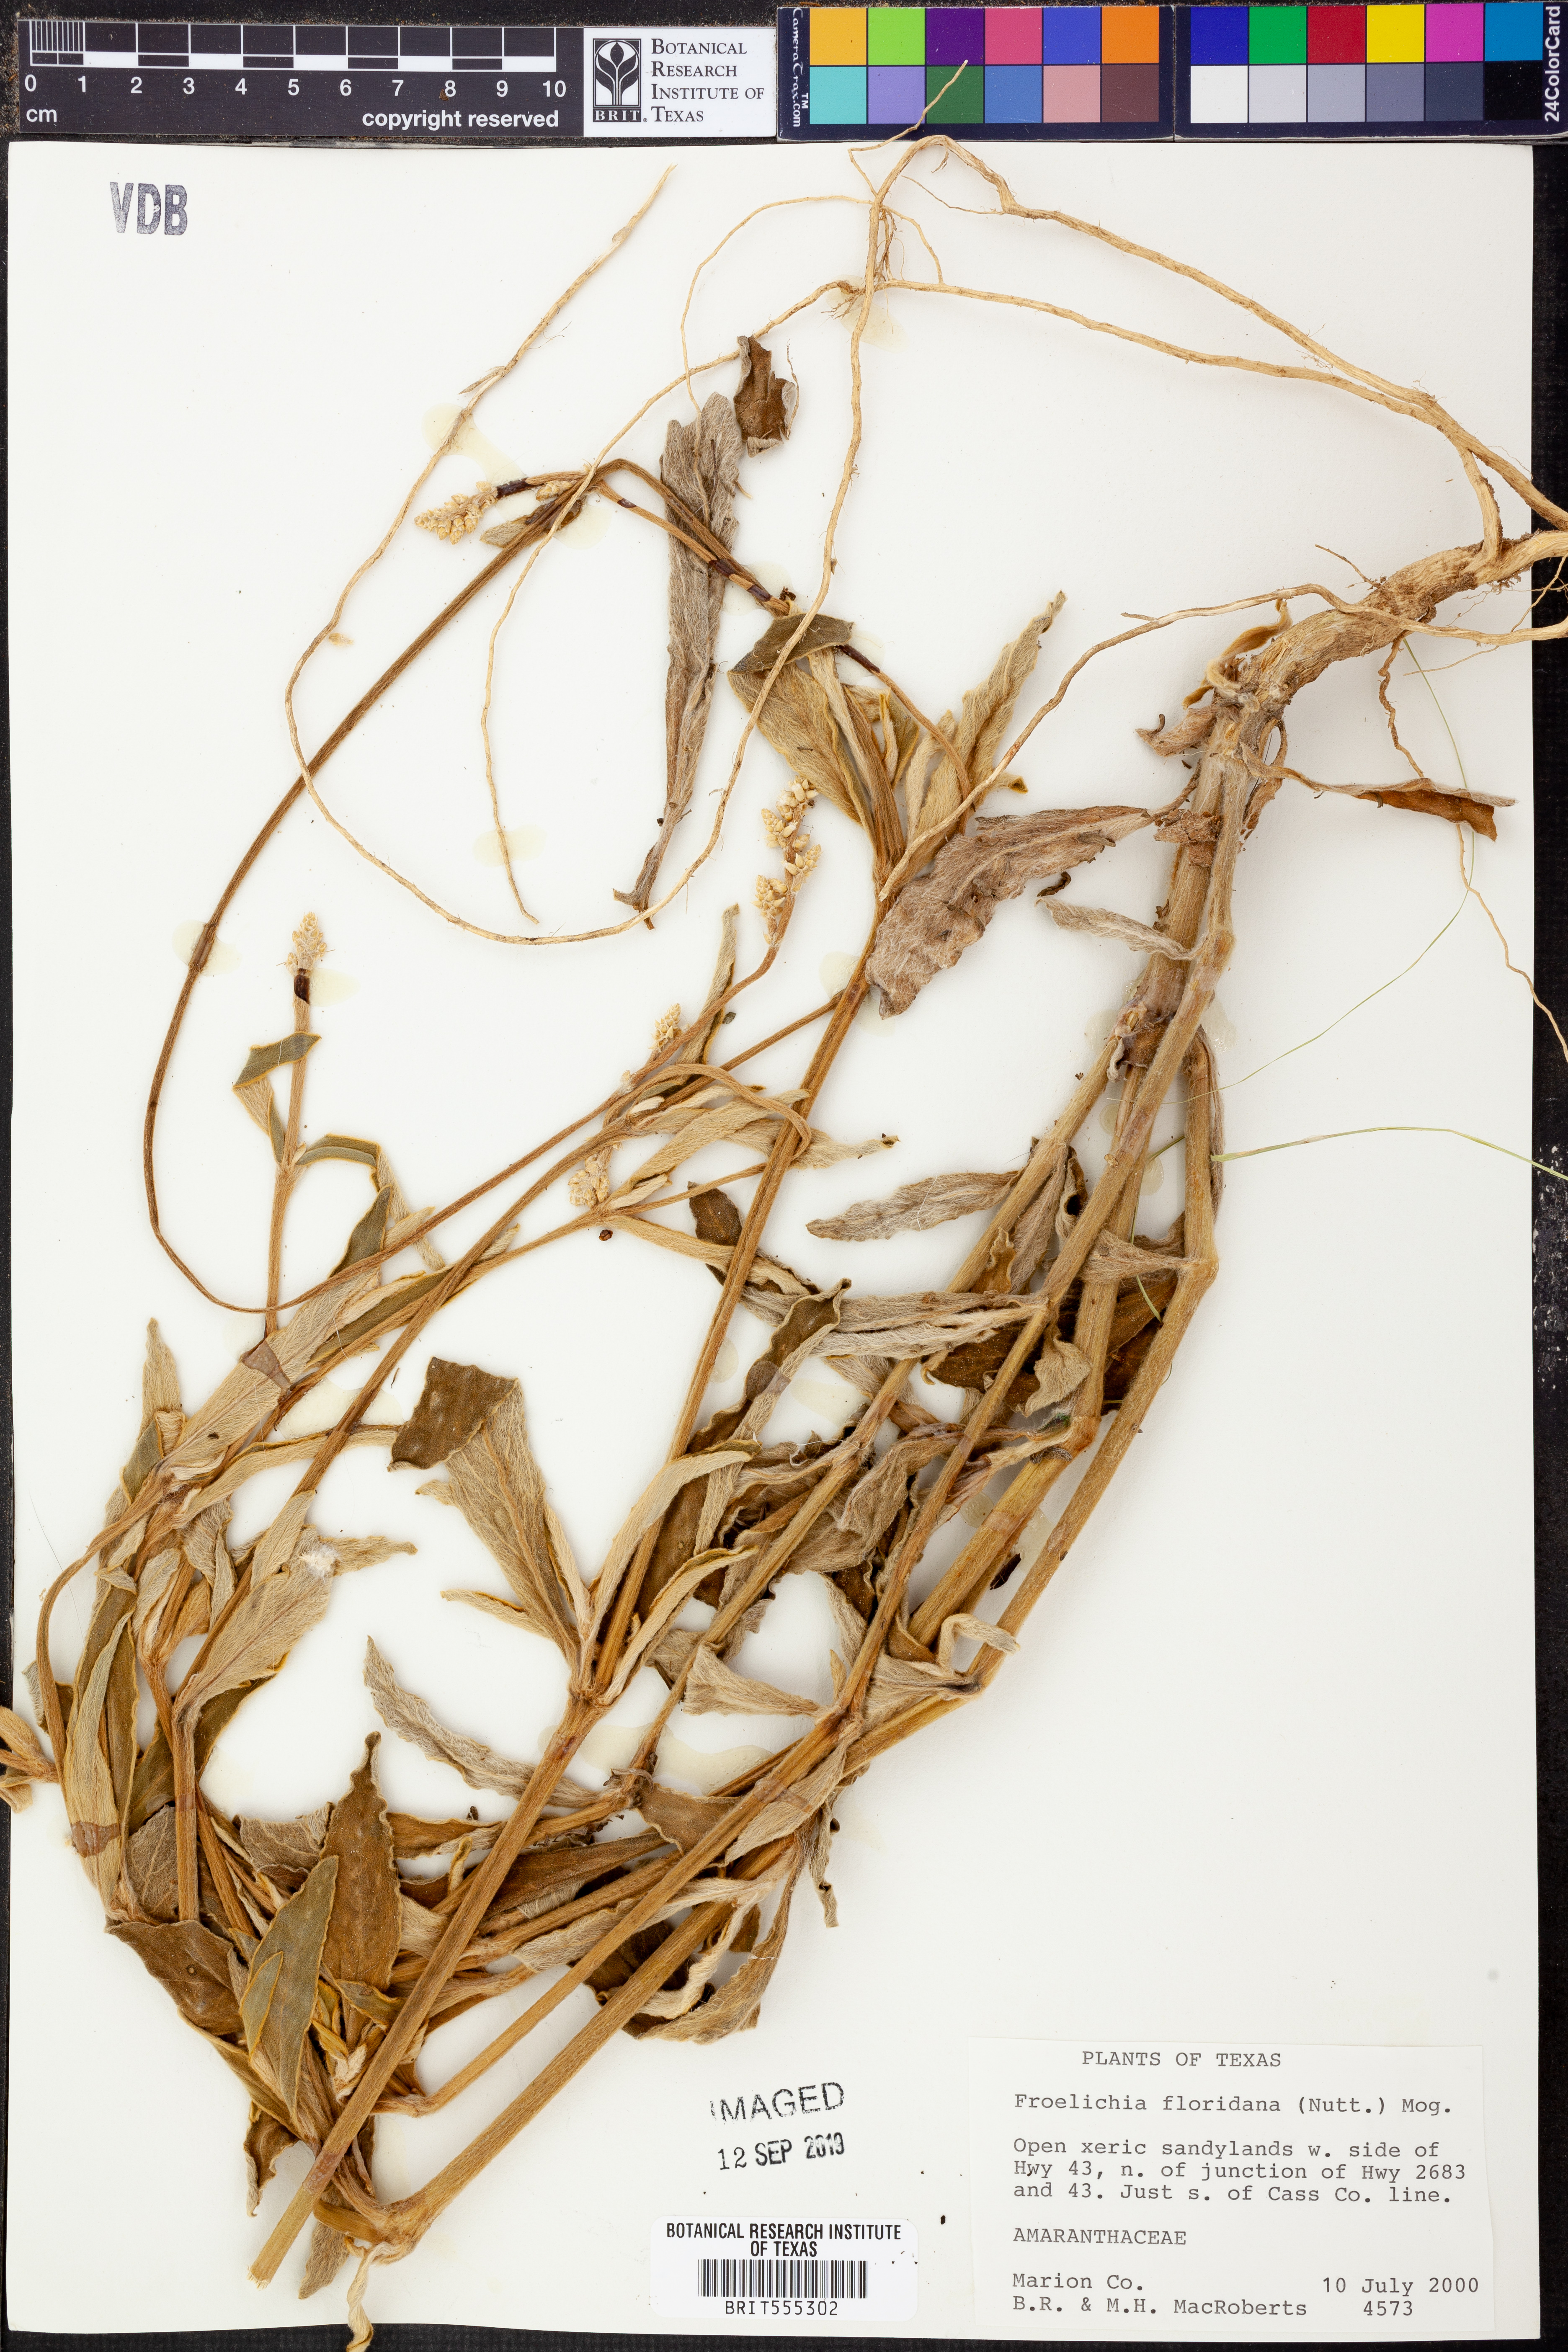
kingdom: Plantae
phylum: Tracheophyta
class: Magnoliopsida
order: Caryophyllales
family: Amaranthaceae
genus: Froelichia
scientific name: Froelichia floridana
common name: Florida snake-cotton
